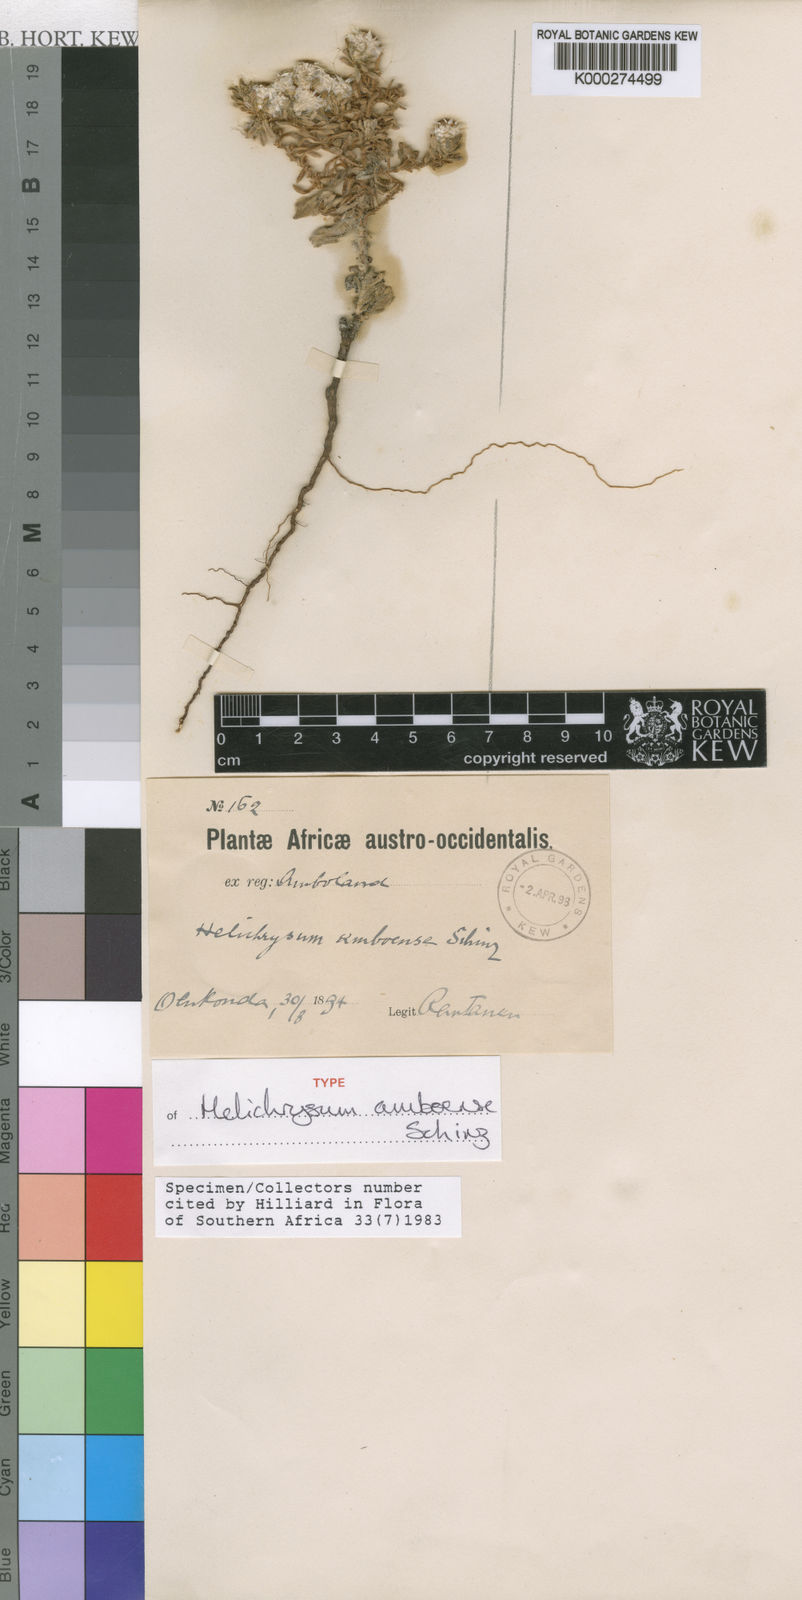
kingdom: Plantae
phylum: Tracheophyta
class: Magnoliopsida
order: Asterales
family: Asteraceae
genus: Helichrysum
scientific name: Helichrysum amboense
